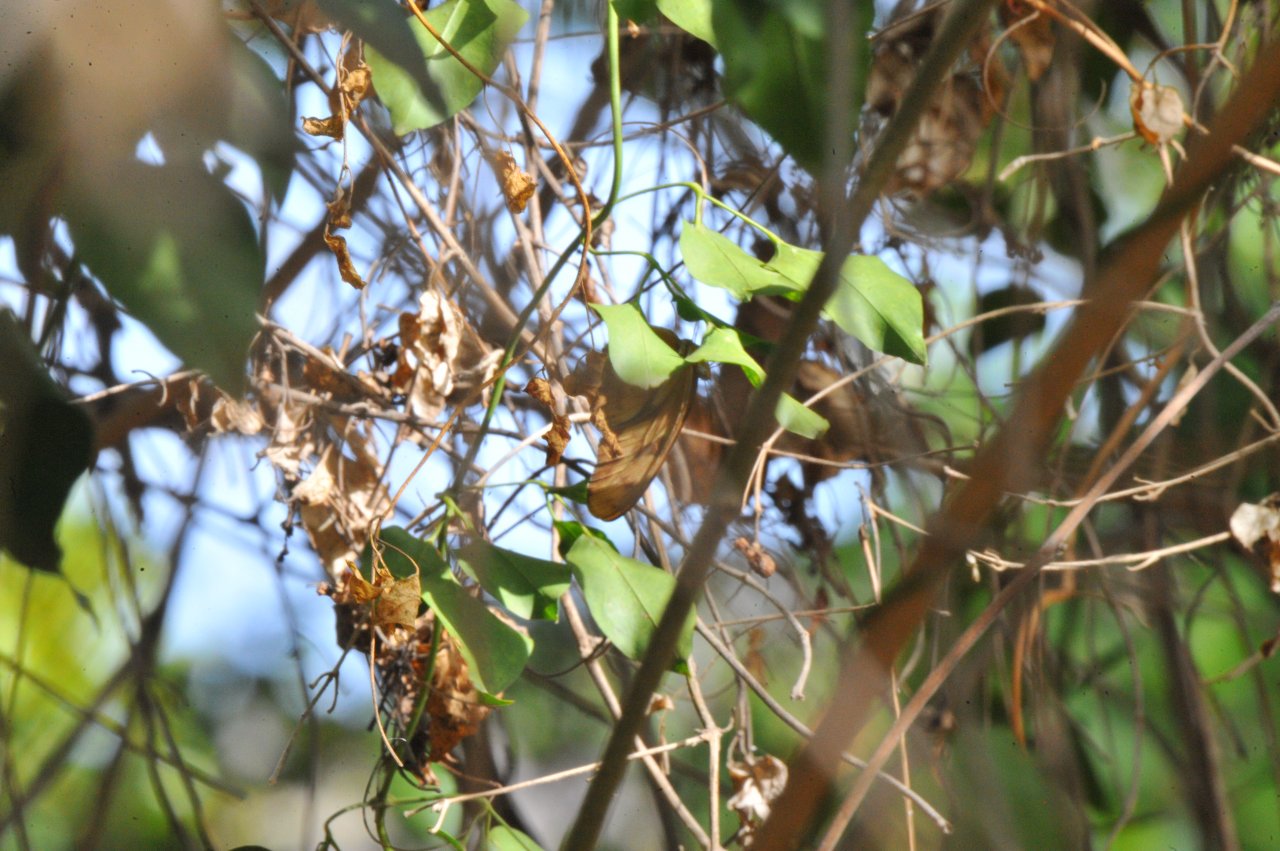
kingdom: Animalia
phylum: Arthropoda
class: Insecta
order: Lepidoptera
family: Nymphalidae
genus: Dryas
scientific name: Dryas iulia
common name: Julia
